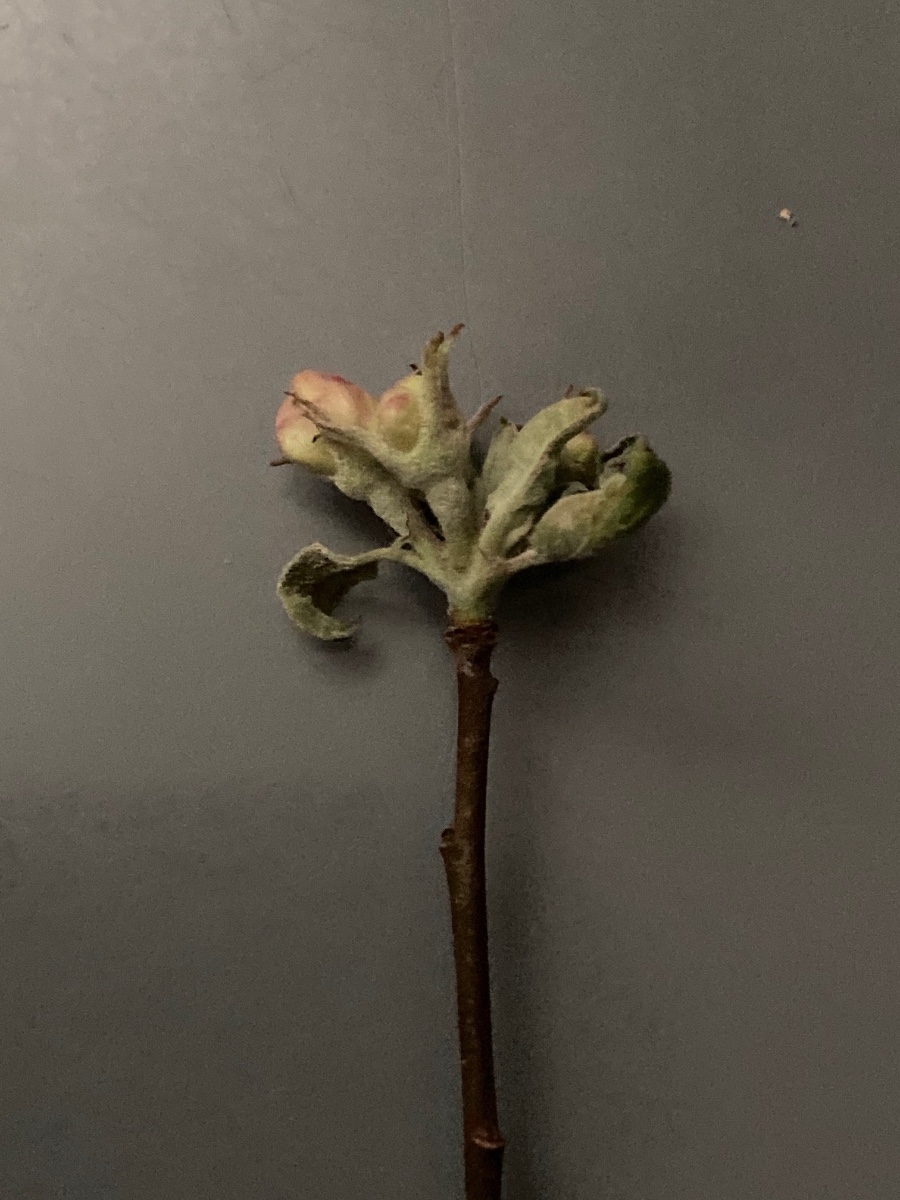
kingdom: Fungi
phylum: Ascomycota
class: Leotiomycetes
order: Helotiales
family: Erysiphaceae
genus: Podosphaera
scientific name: Podosphaera leucotricha
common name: æble-meldug
